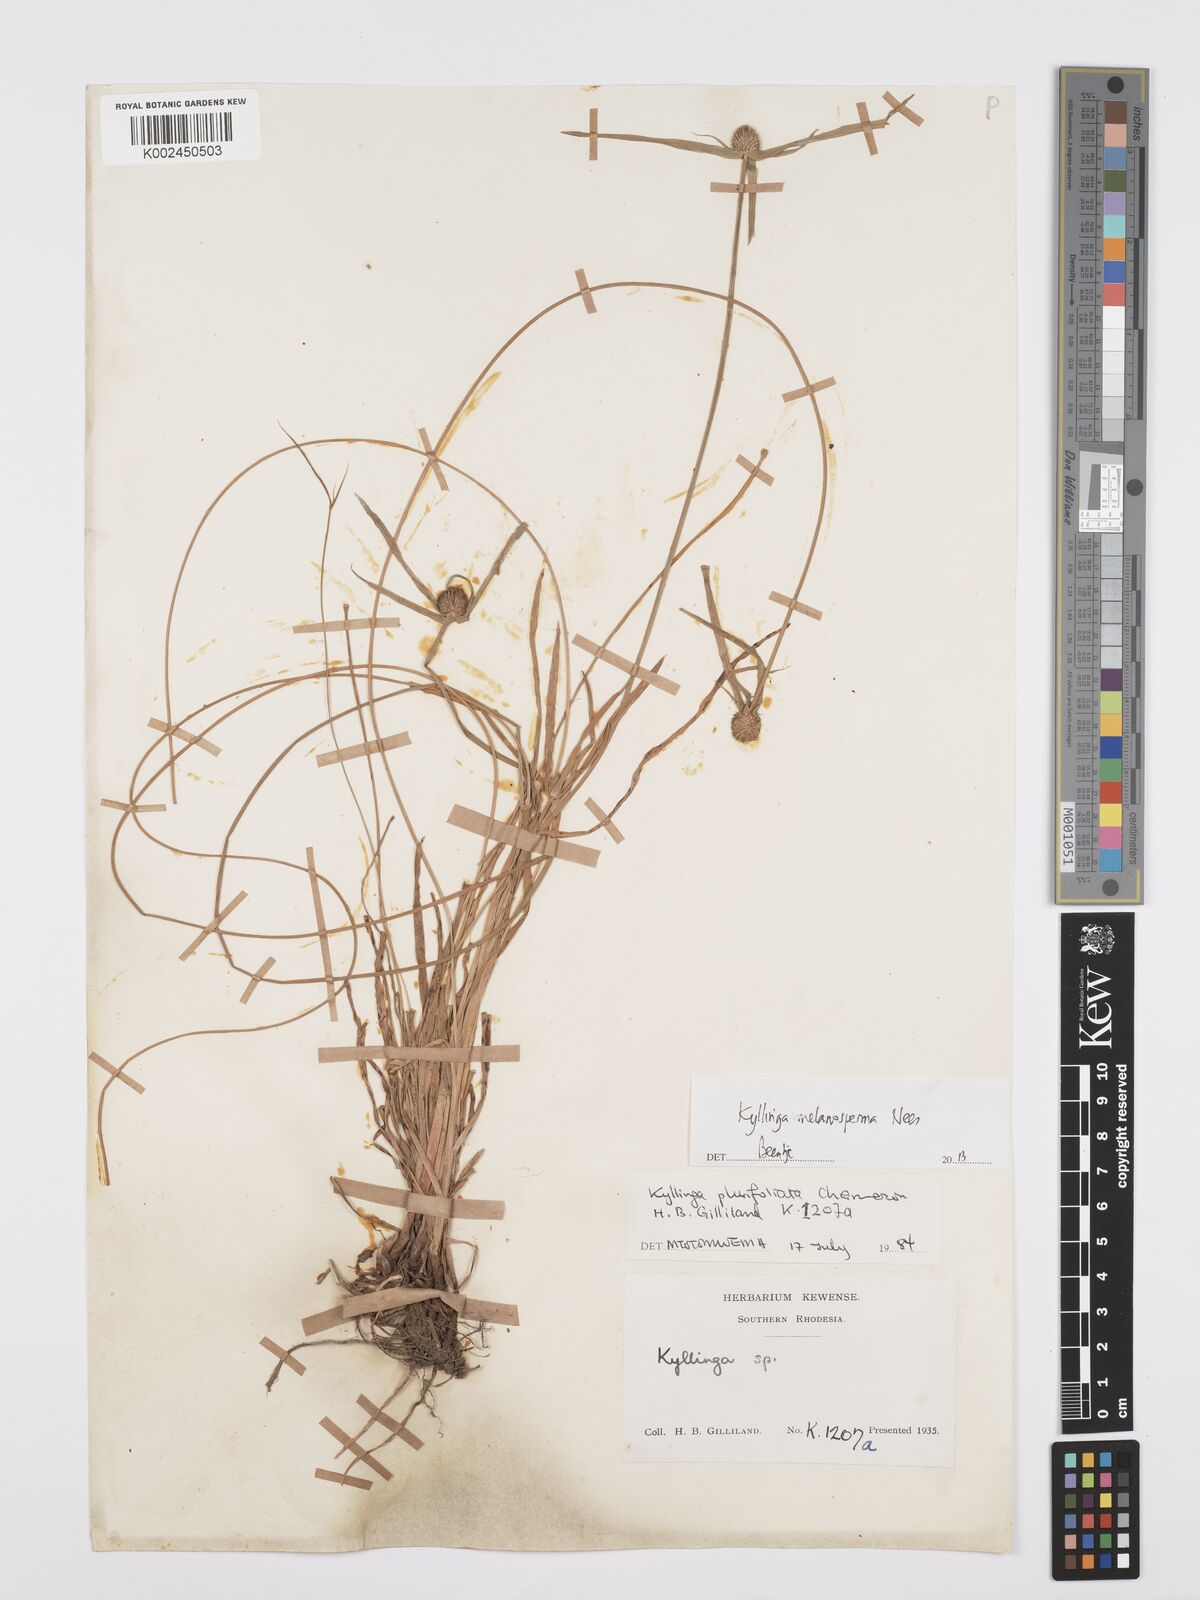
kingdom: Plantae
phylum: Tracheophyta
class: Liliopsida
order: Poales
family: Cyperaceae
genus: Cyperus
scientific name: Cyperus melanospermus
